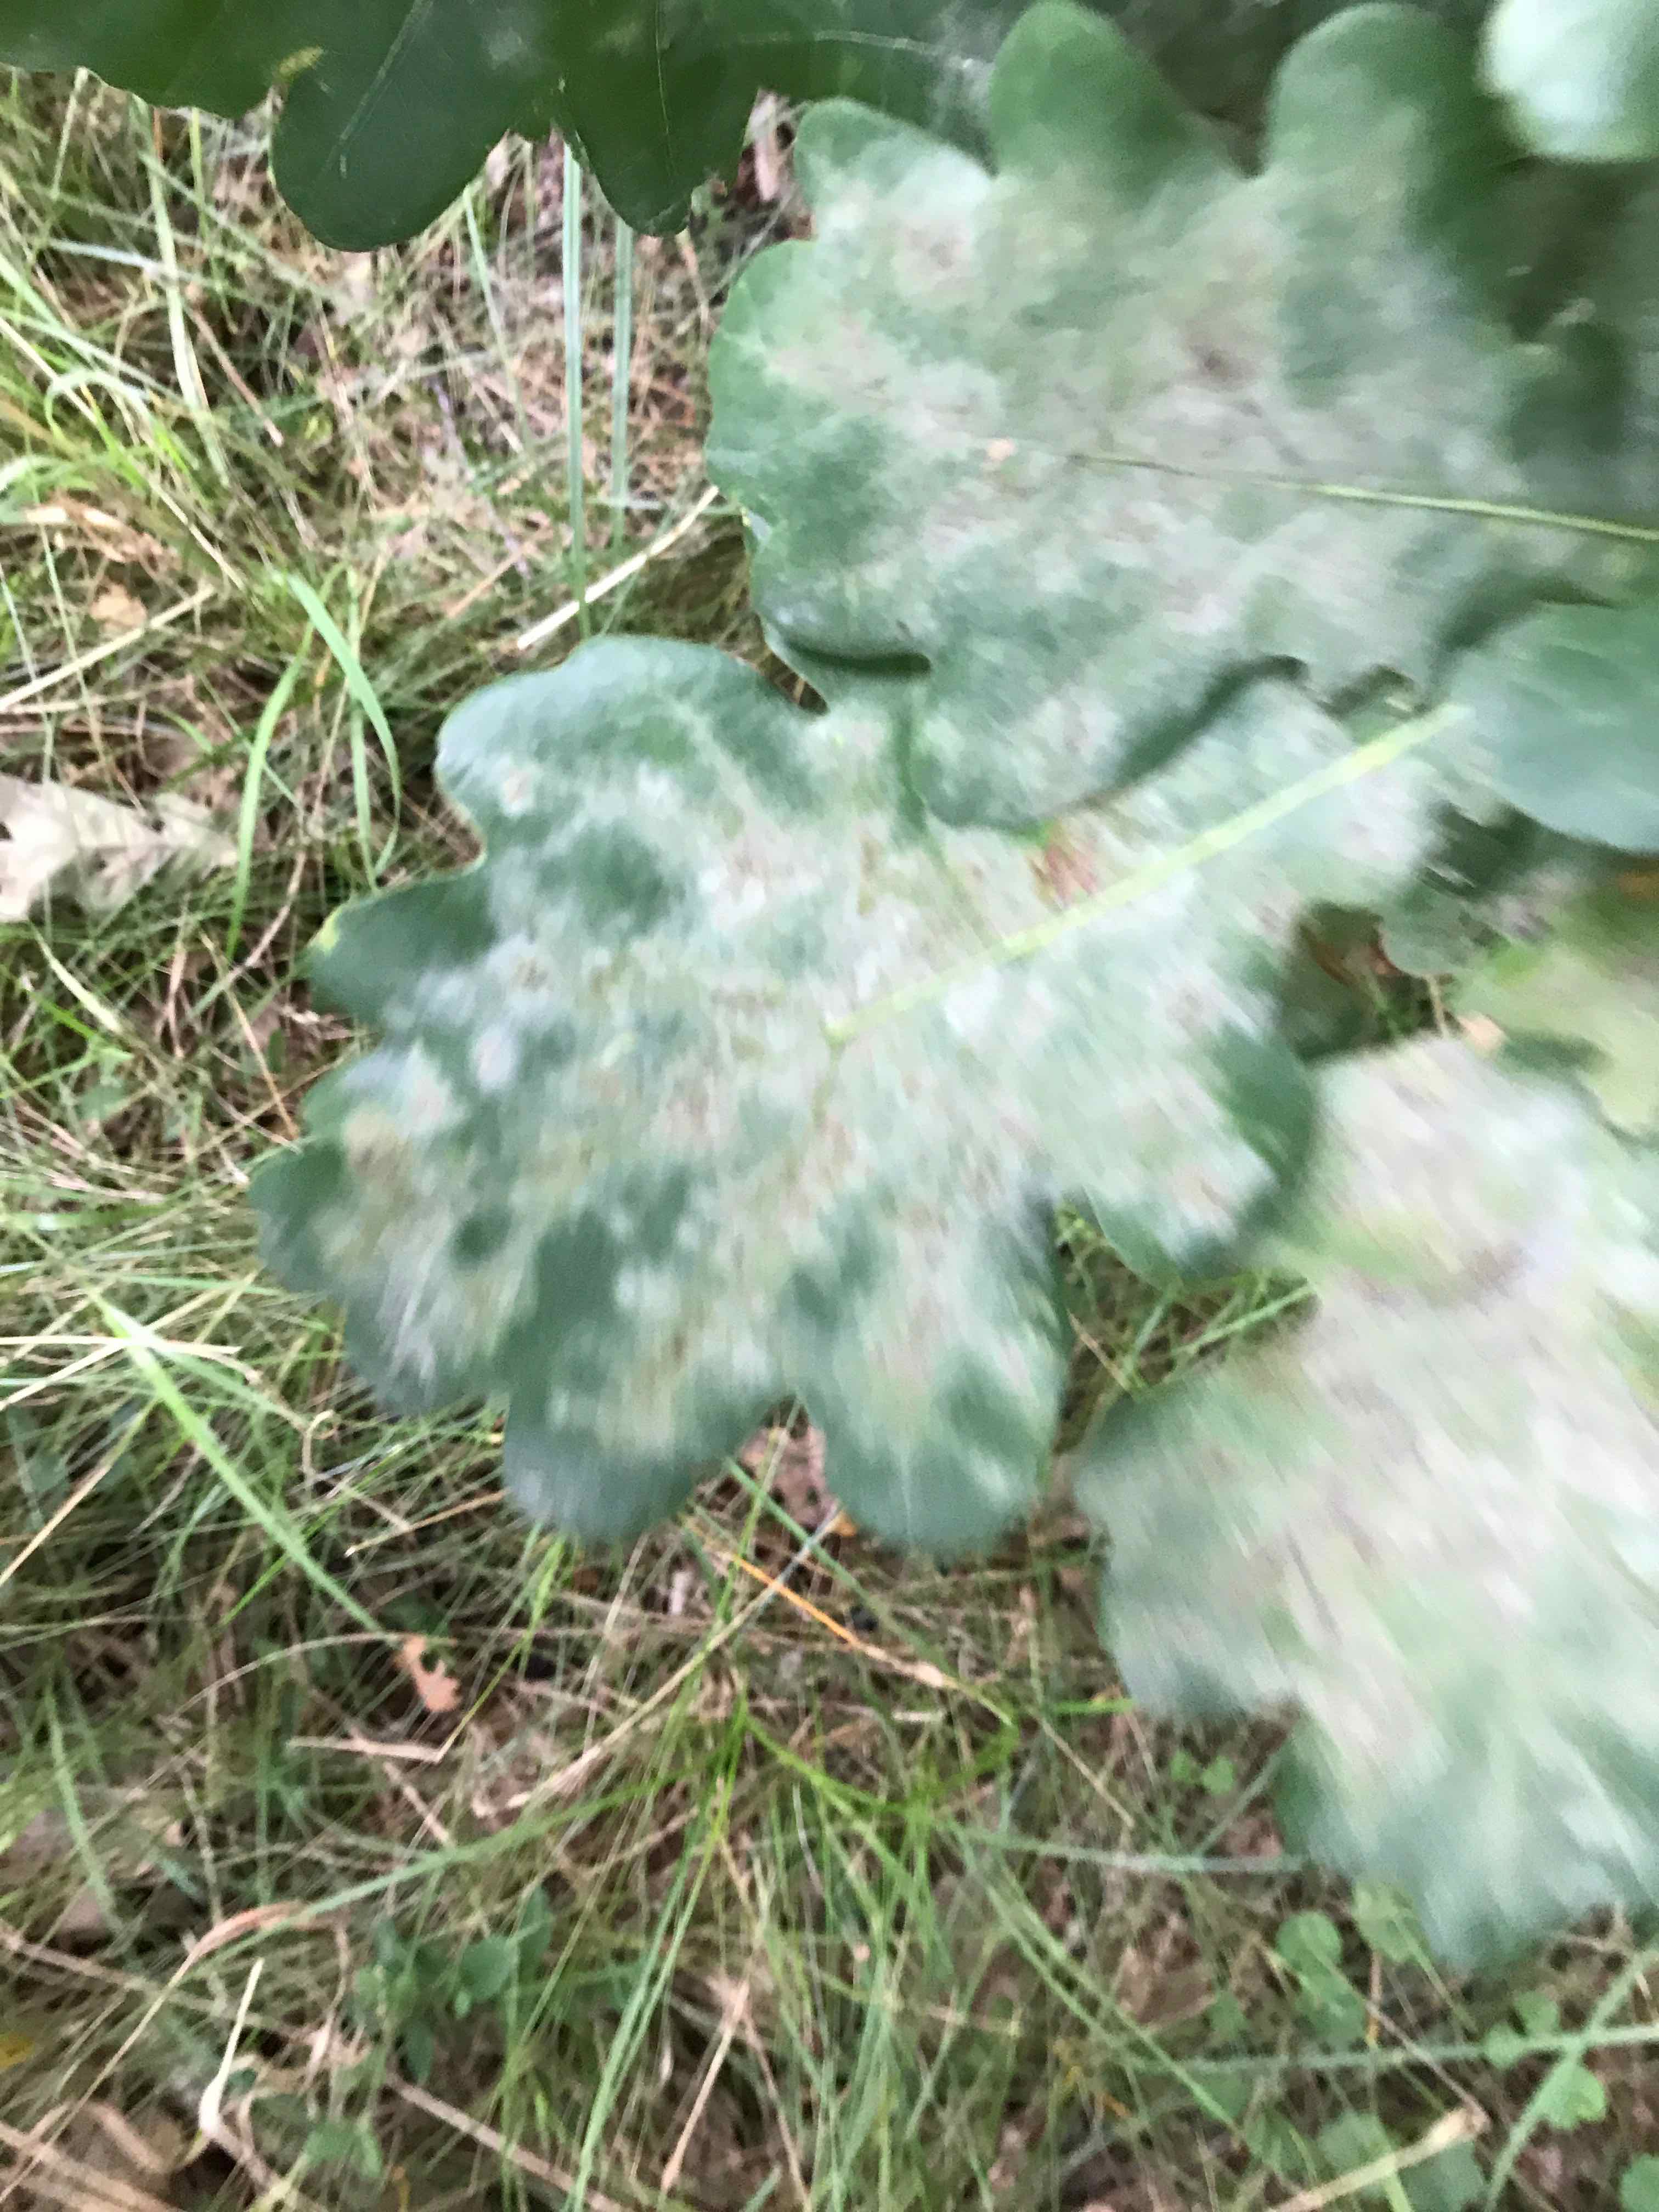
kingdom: Fungi
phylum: Ascomycota
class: Leotiomycetes
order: Helotiales
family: Erysiphaceae
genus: Erysiphe
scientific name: Erysiphe alphitoides
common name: ege-meldug
